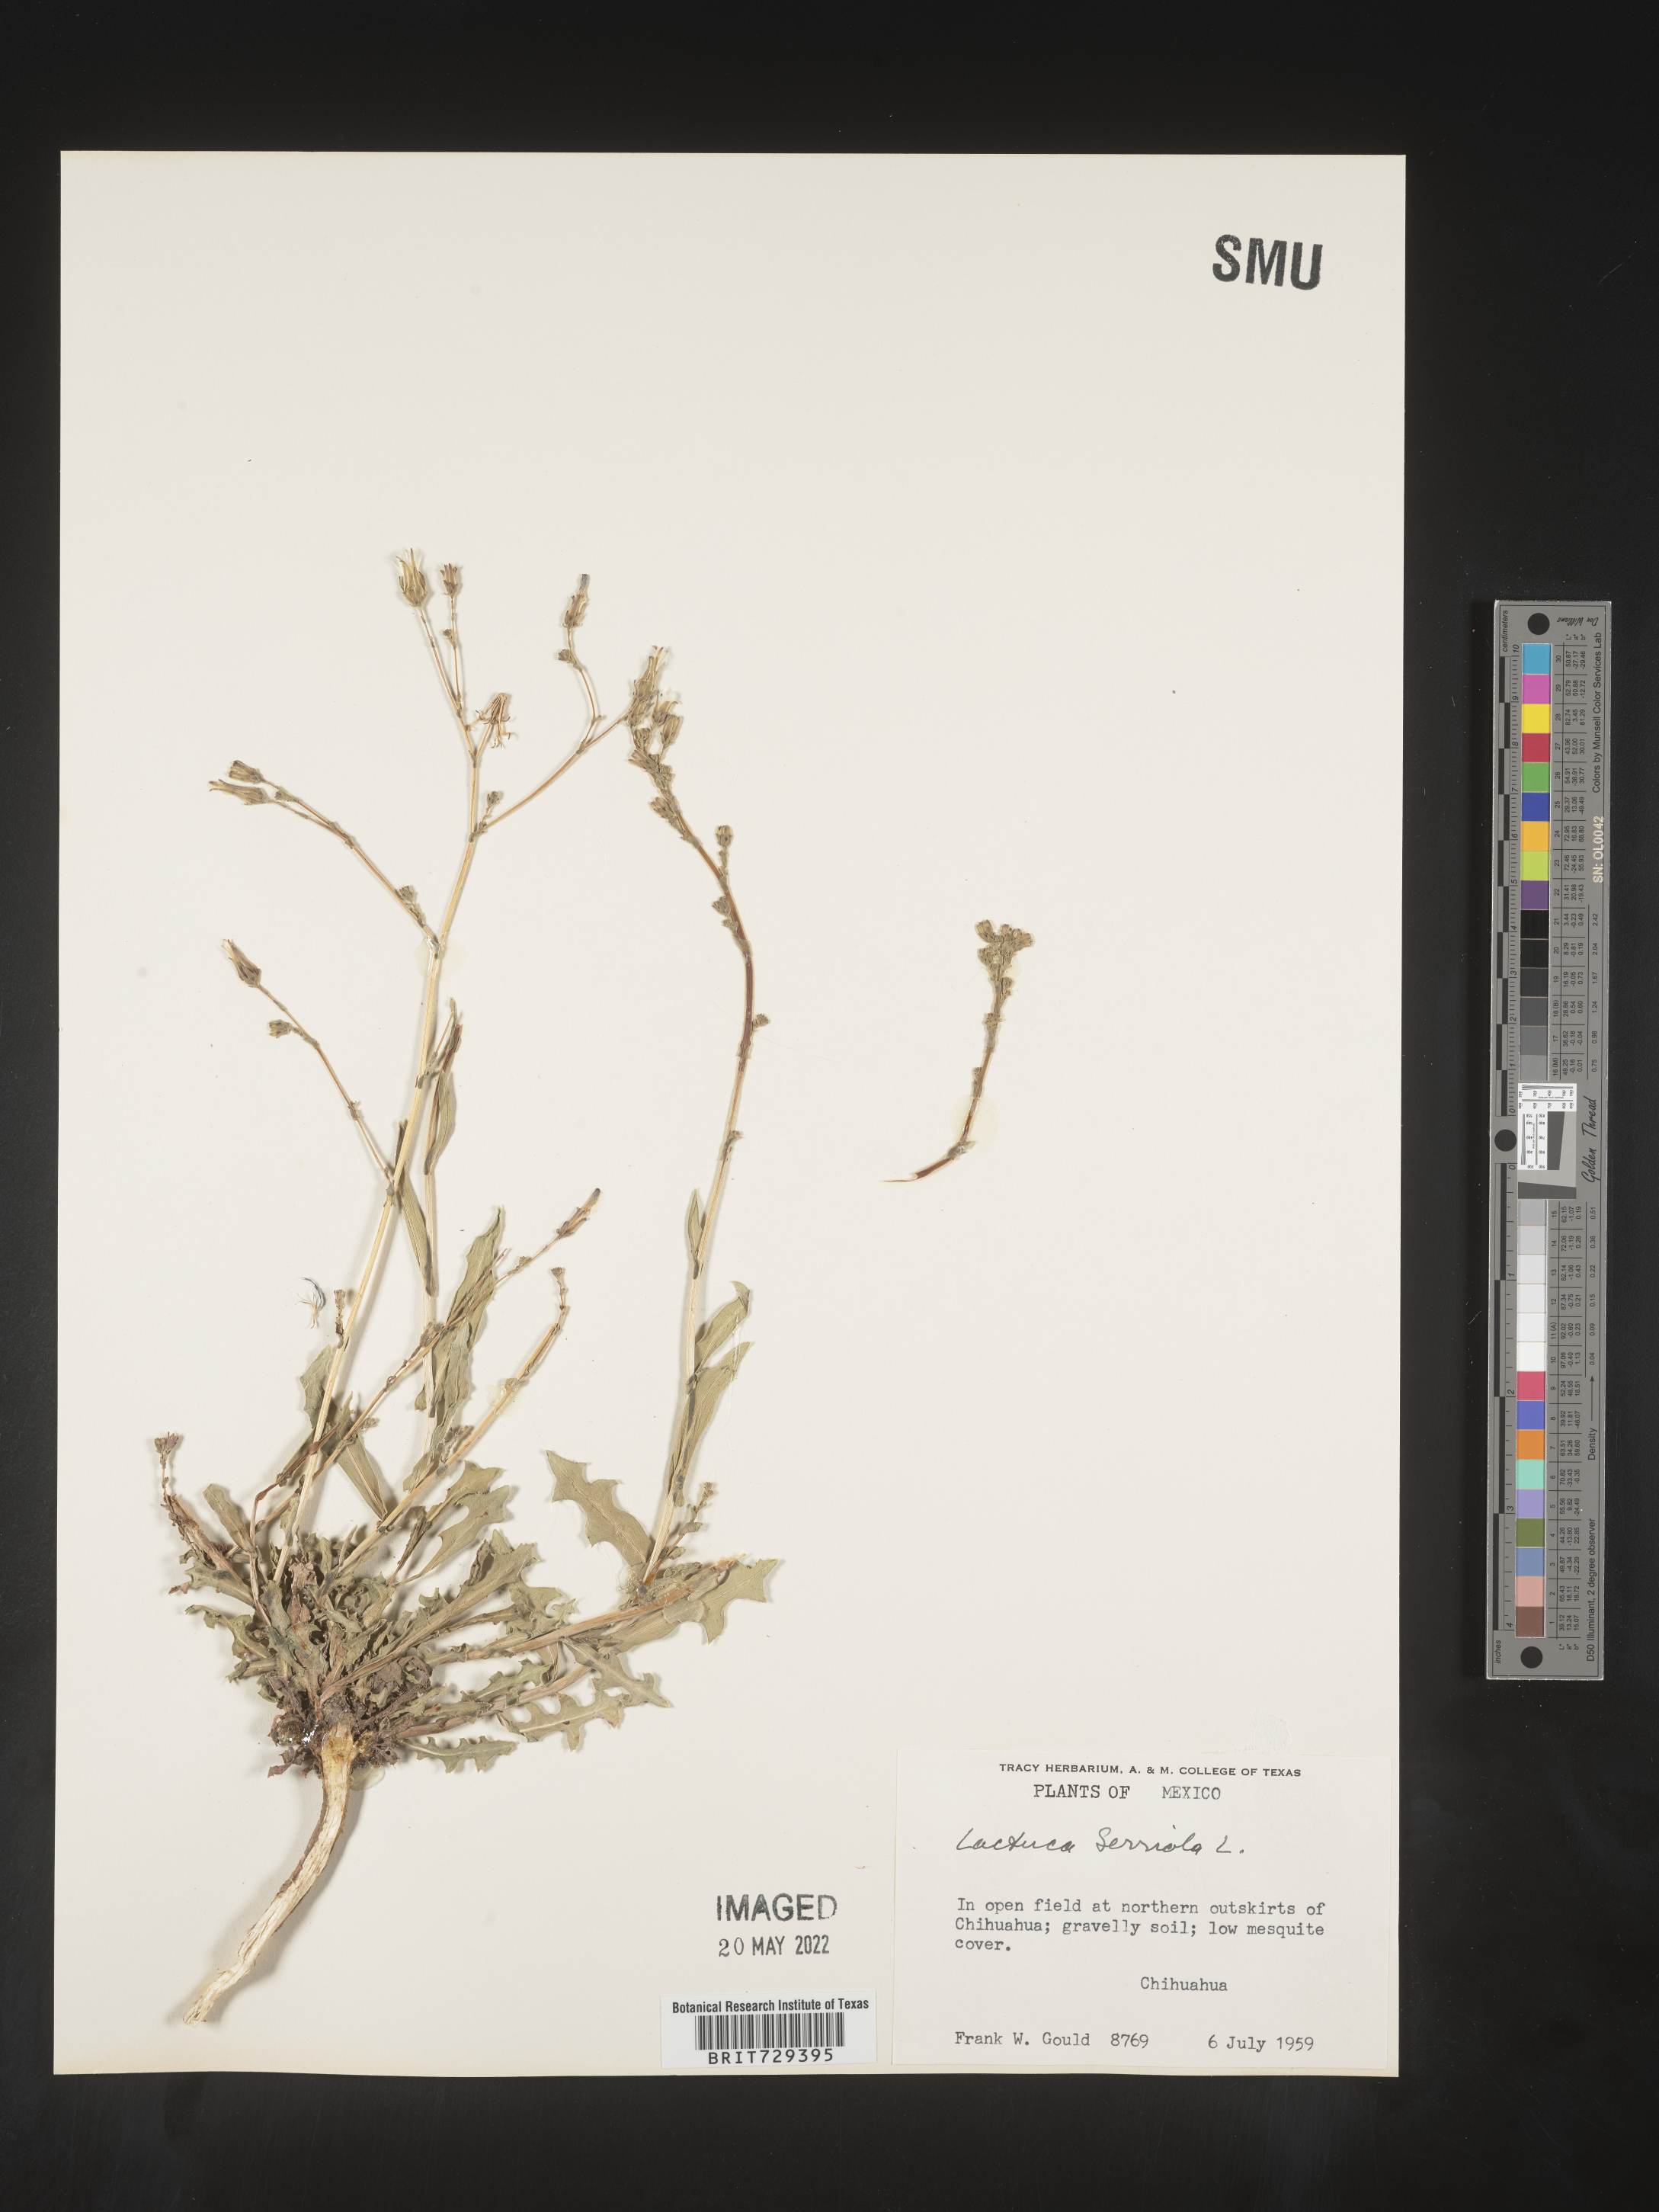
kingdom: Plantae
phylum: Tracheophyta
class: Magnoliopsida
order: Asterales
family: Asteraceae
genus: Lactuca
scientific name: Lactuca
